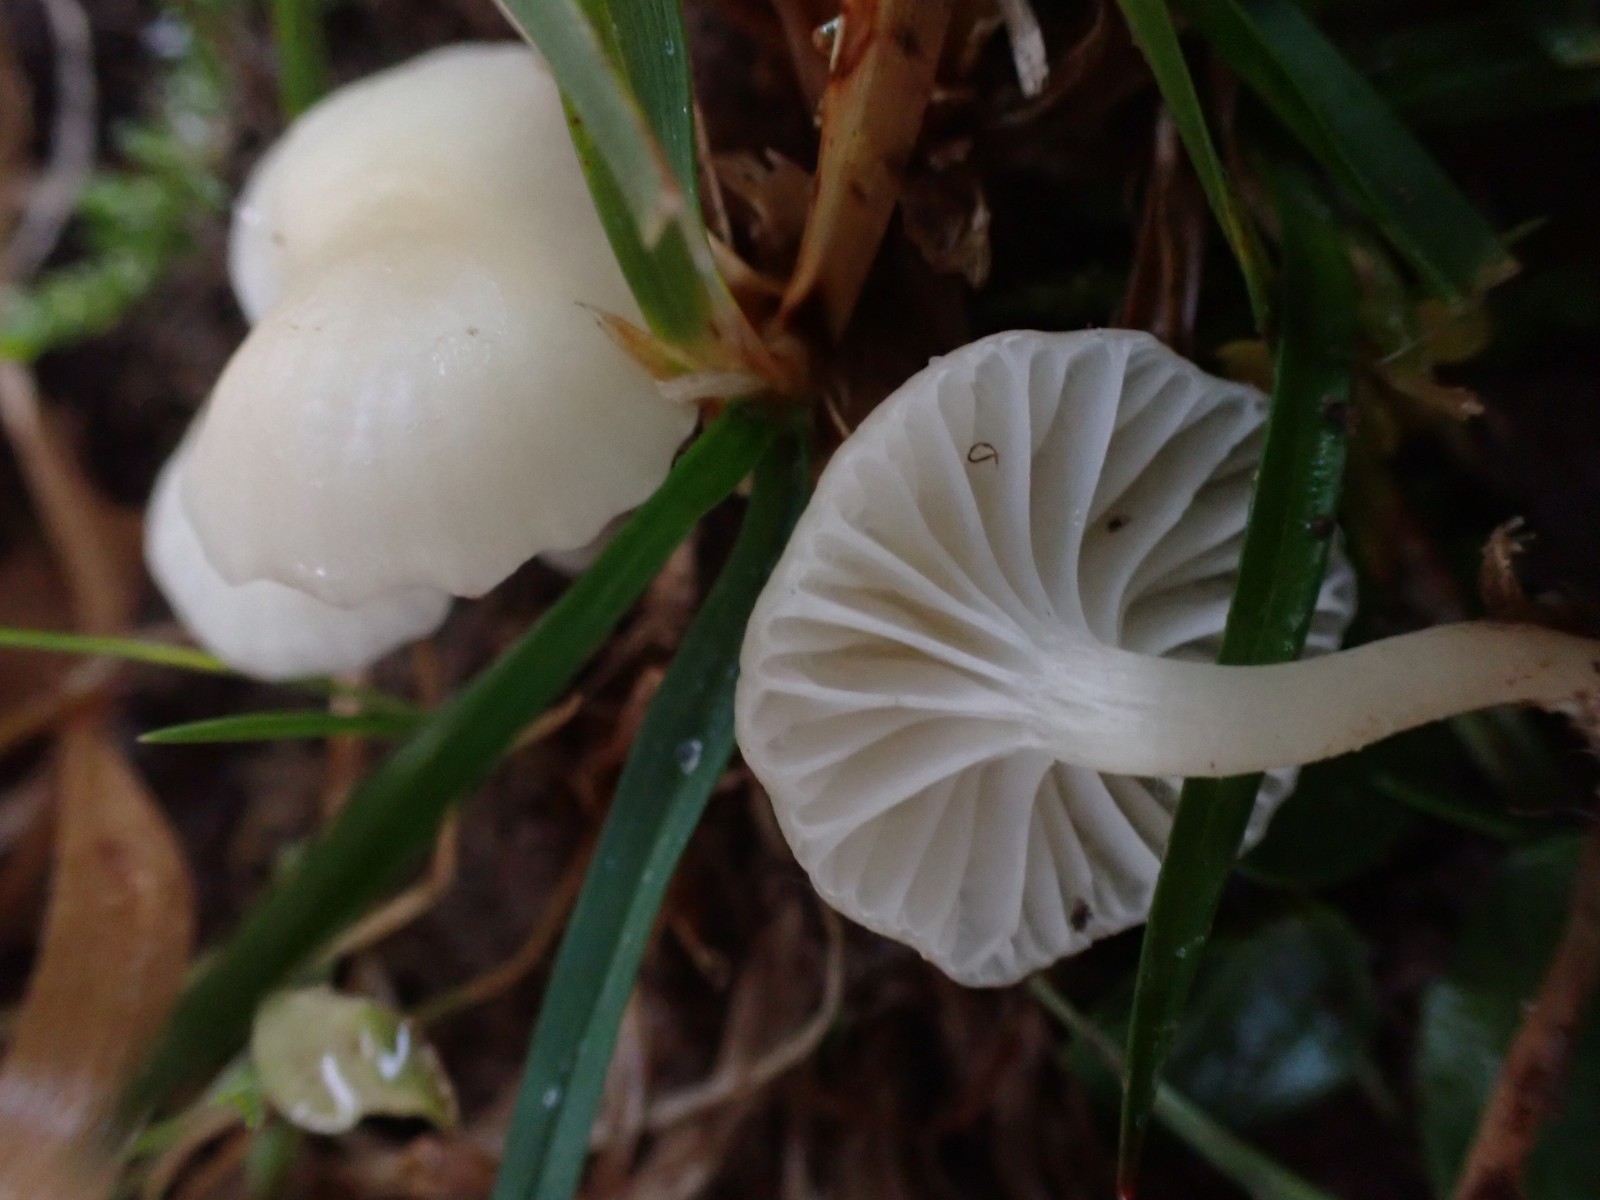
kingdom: Fungi
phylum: Basidiomycota
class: Agaricomycetes
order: Agaricales
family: Hygrophoraceae
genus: Cuphophyllus
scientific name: Cuphophyllus russocoriaceus
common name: ruslæder-vokshat
